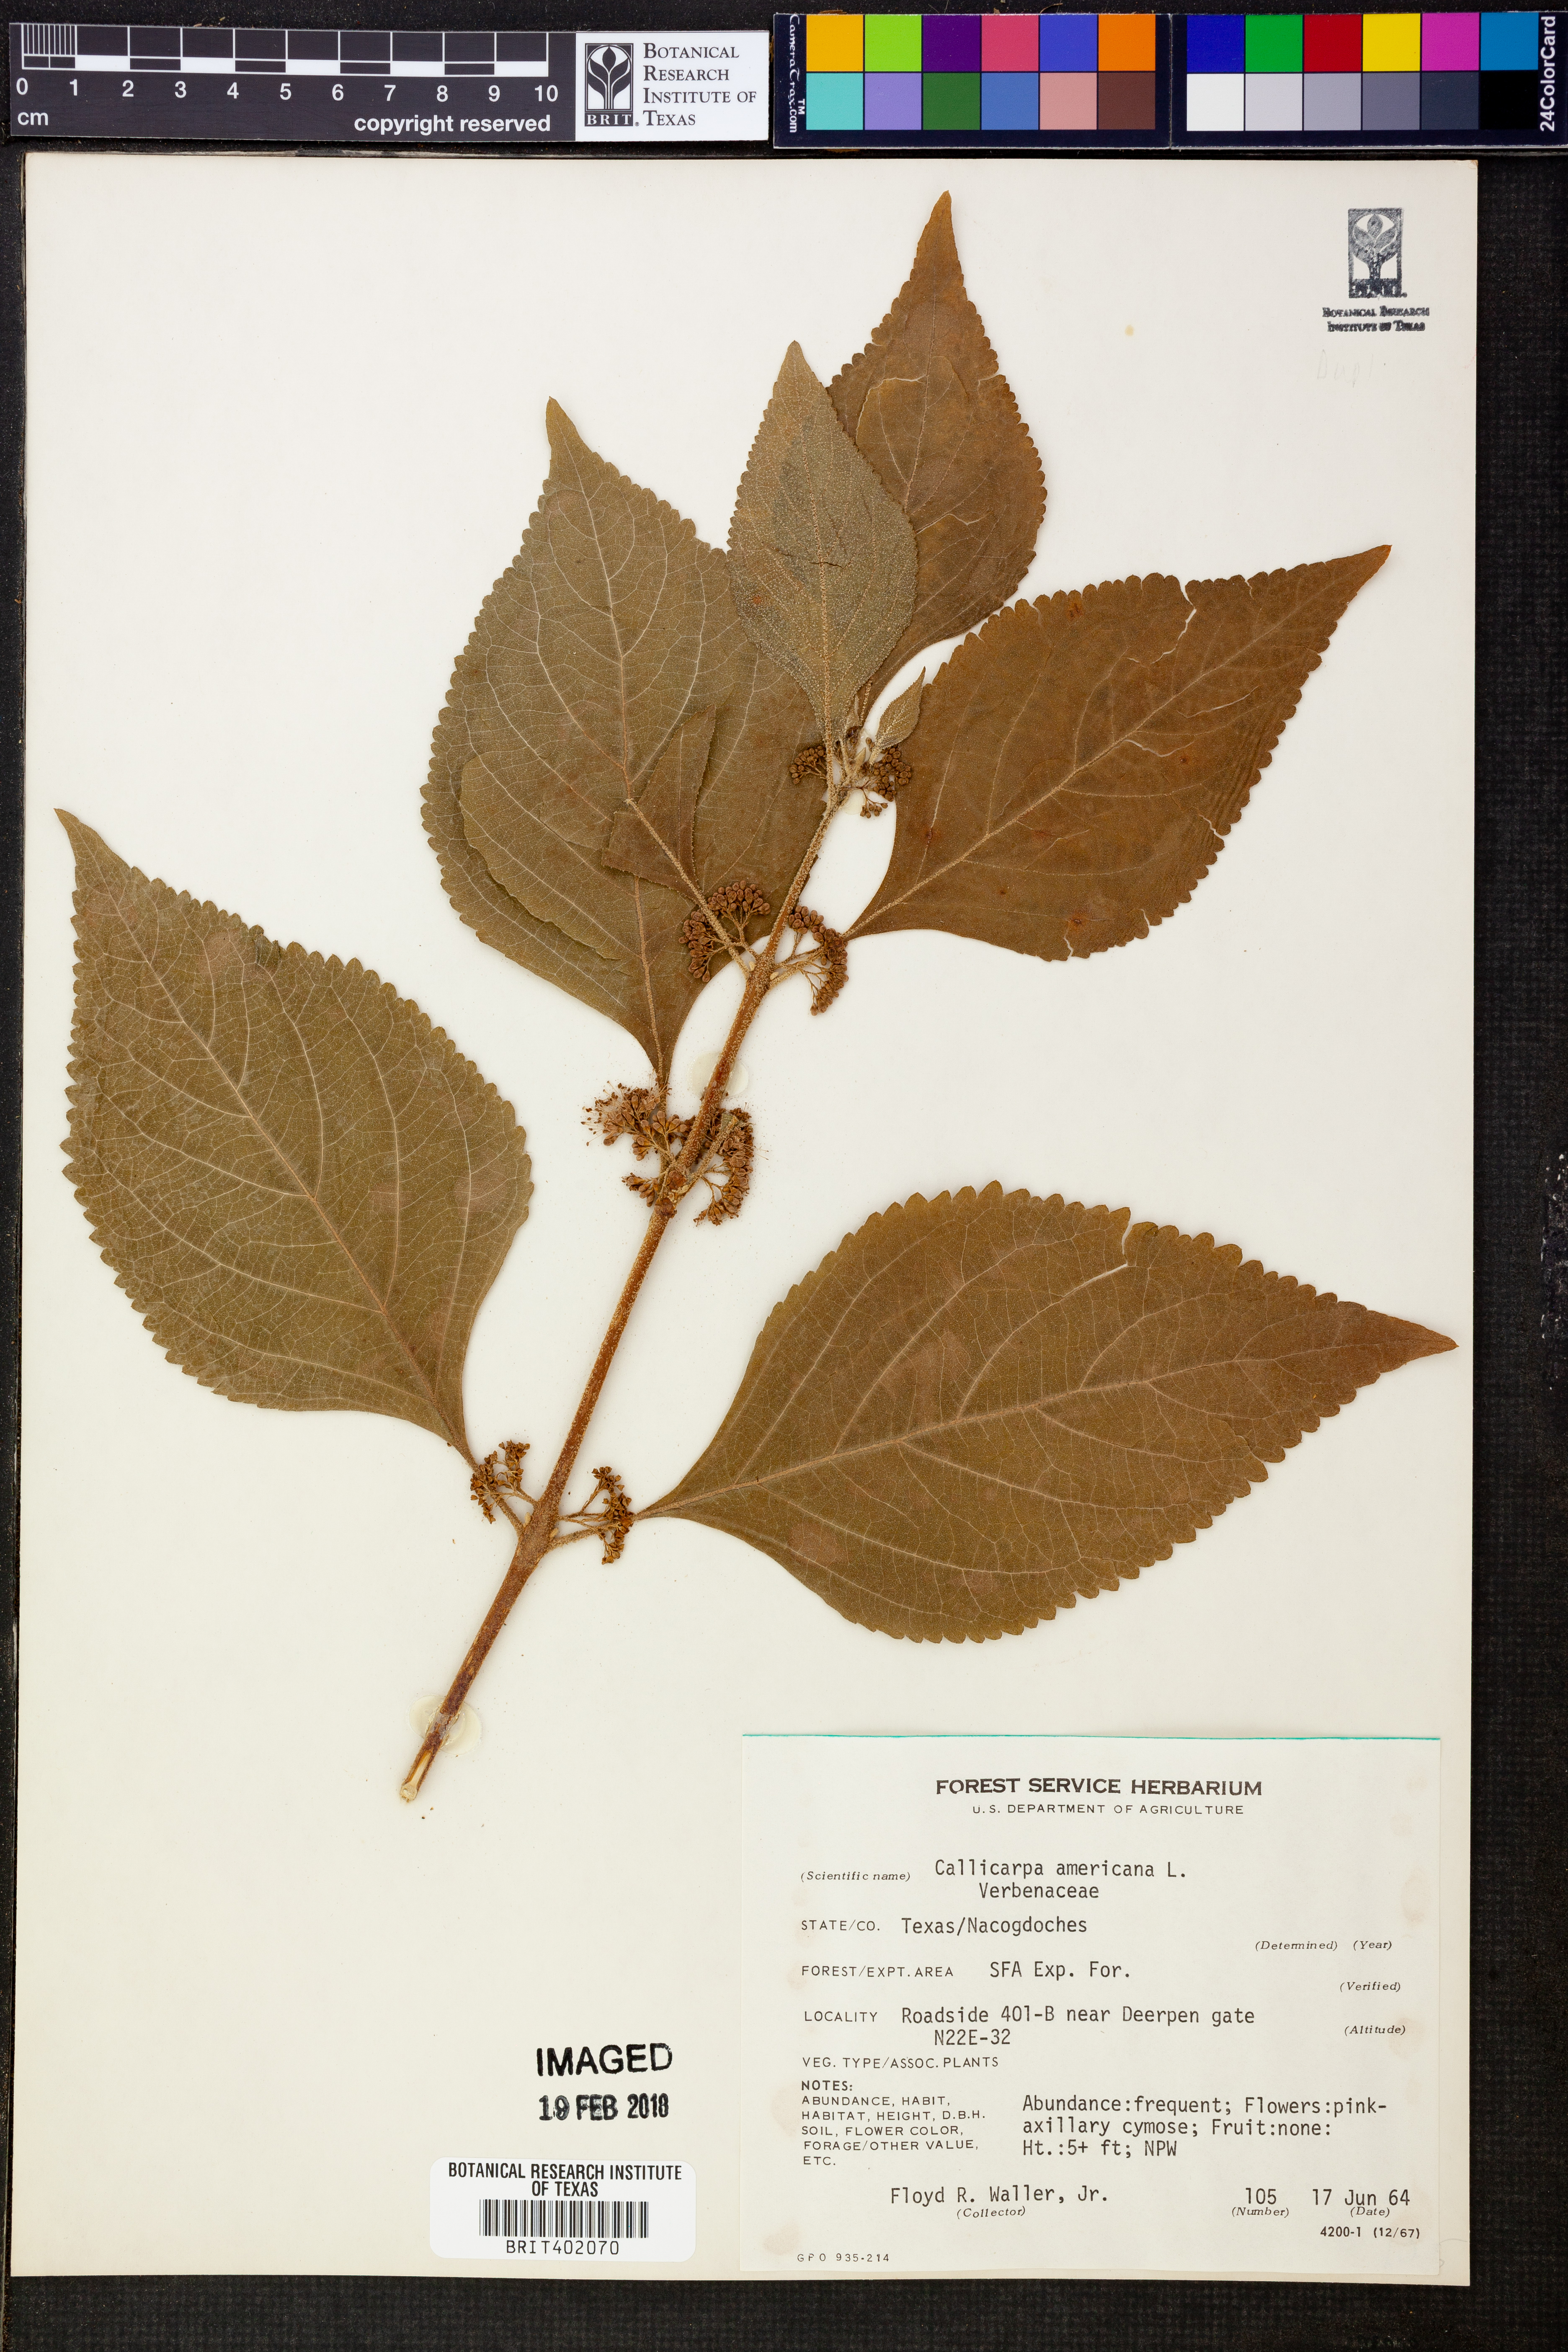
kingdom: Plantae
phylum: Tracheophyta
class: Magnoliopsida
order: Lamiales
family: Lamiaceae
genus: Callicarpa
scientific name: Callicarpa americana
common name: American beautyberry
